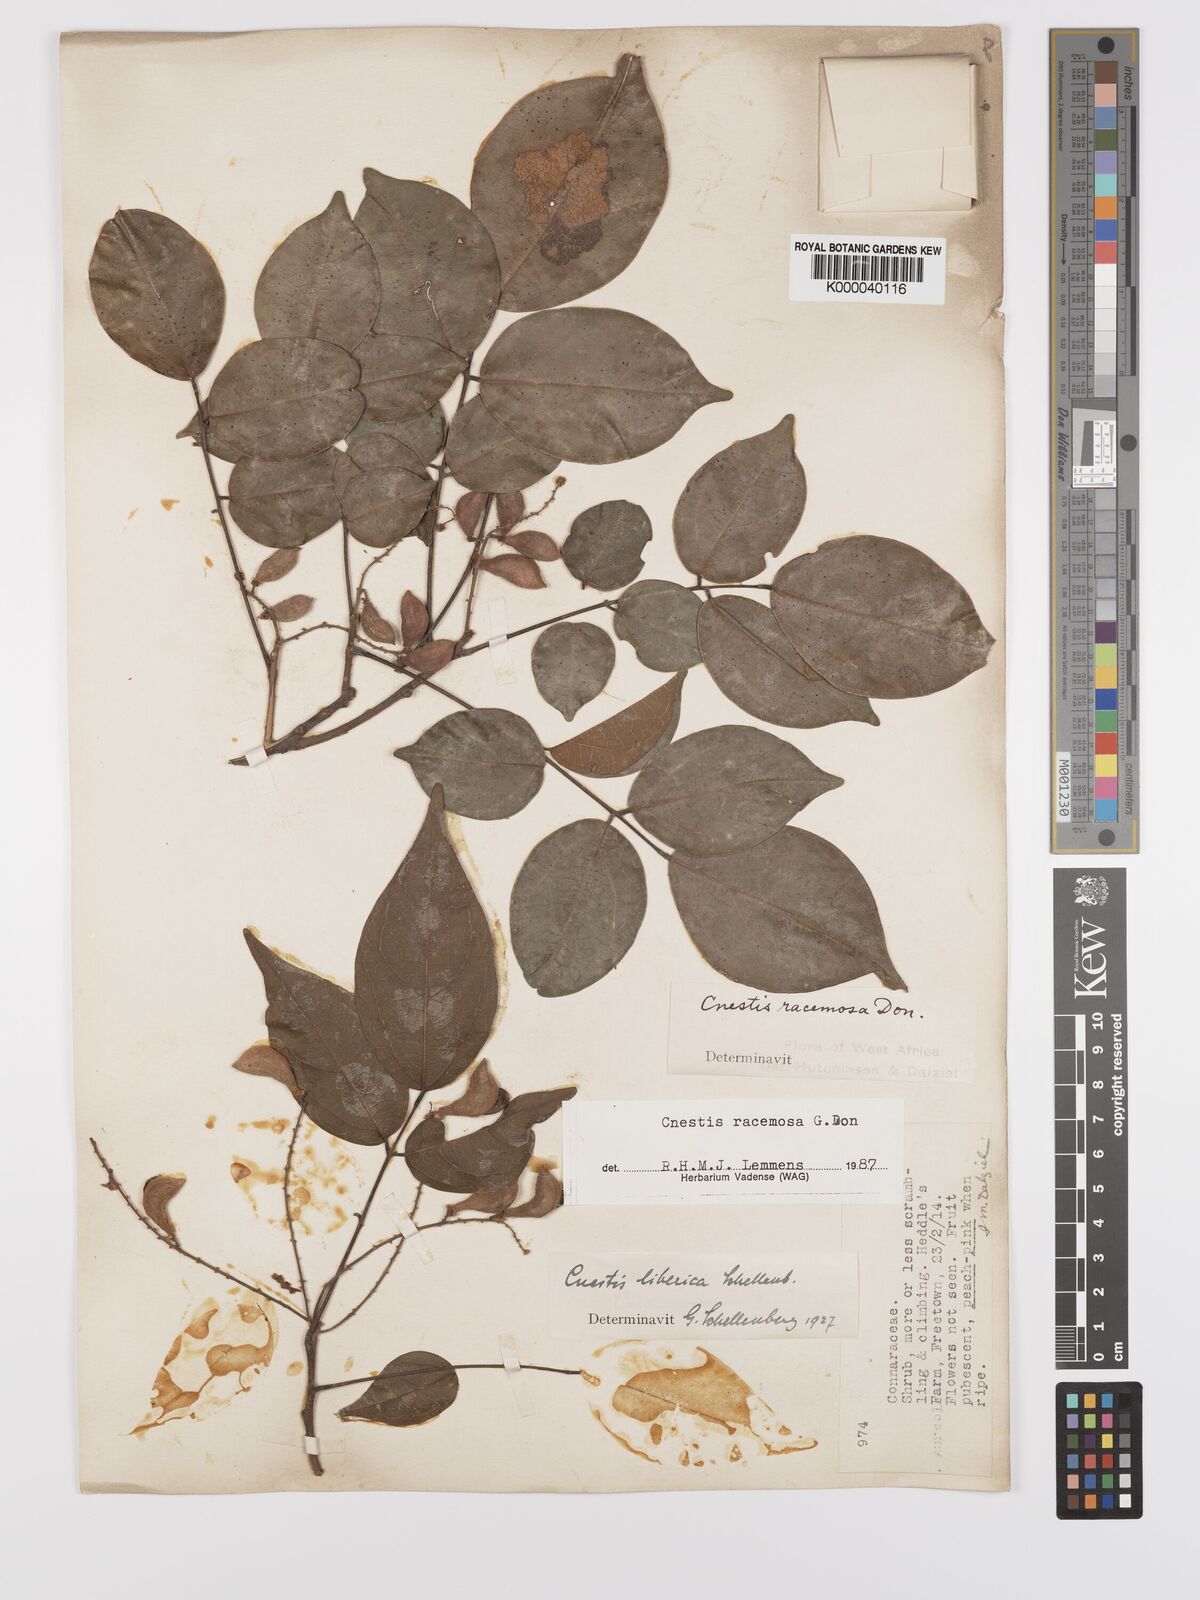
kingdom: Plantae
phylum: Tracheophyta
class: Magnoliopsida
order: Oxalidales
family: Connaraceae
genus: Cnestis
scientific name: Cnestis racemosa
